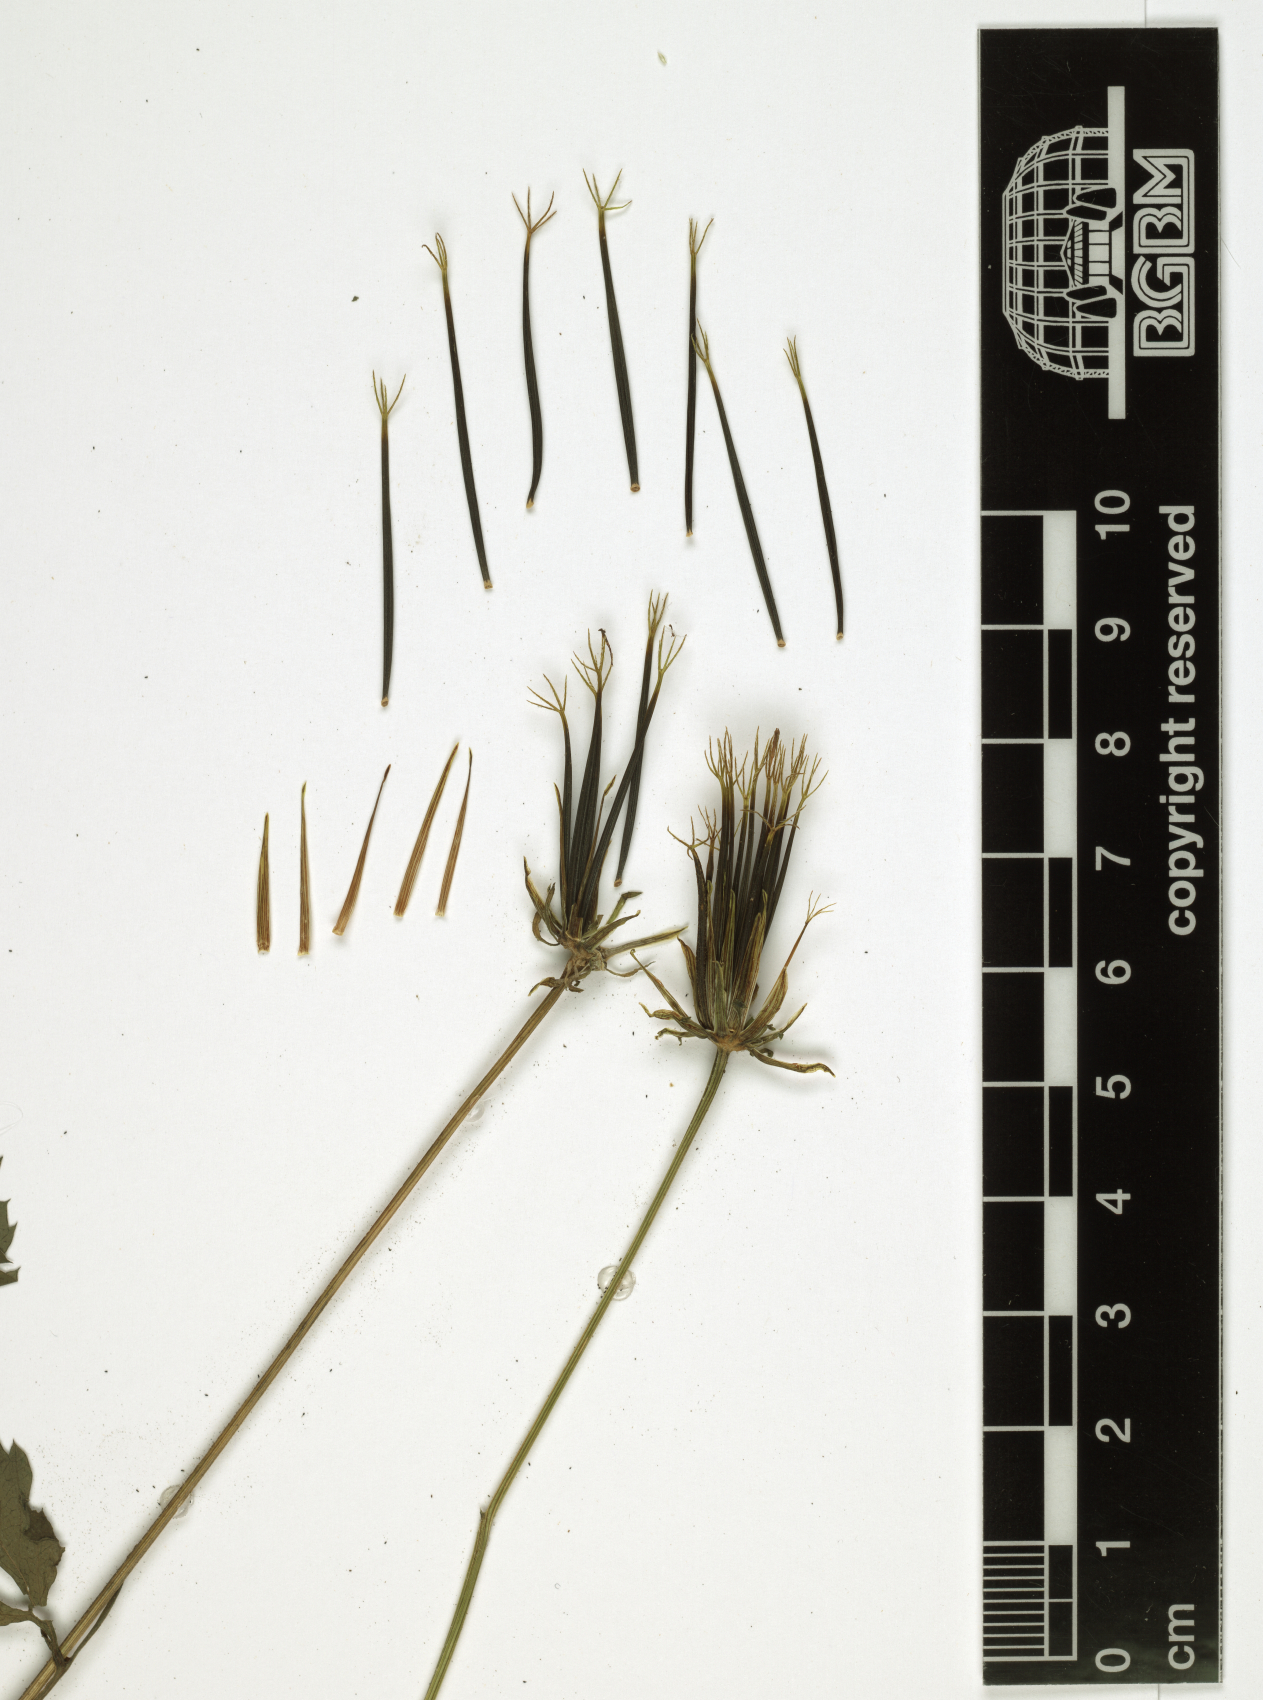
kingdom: Plantae
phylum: Tracheophyta
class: Magnoliopsida
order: Asterales
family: Asteraceae
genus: Bidens
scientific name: Bidens biternata
